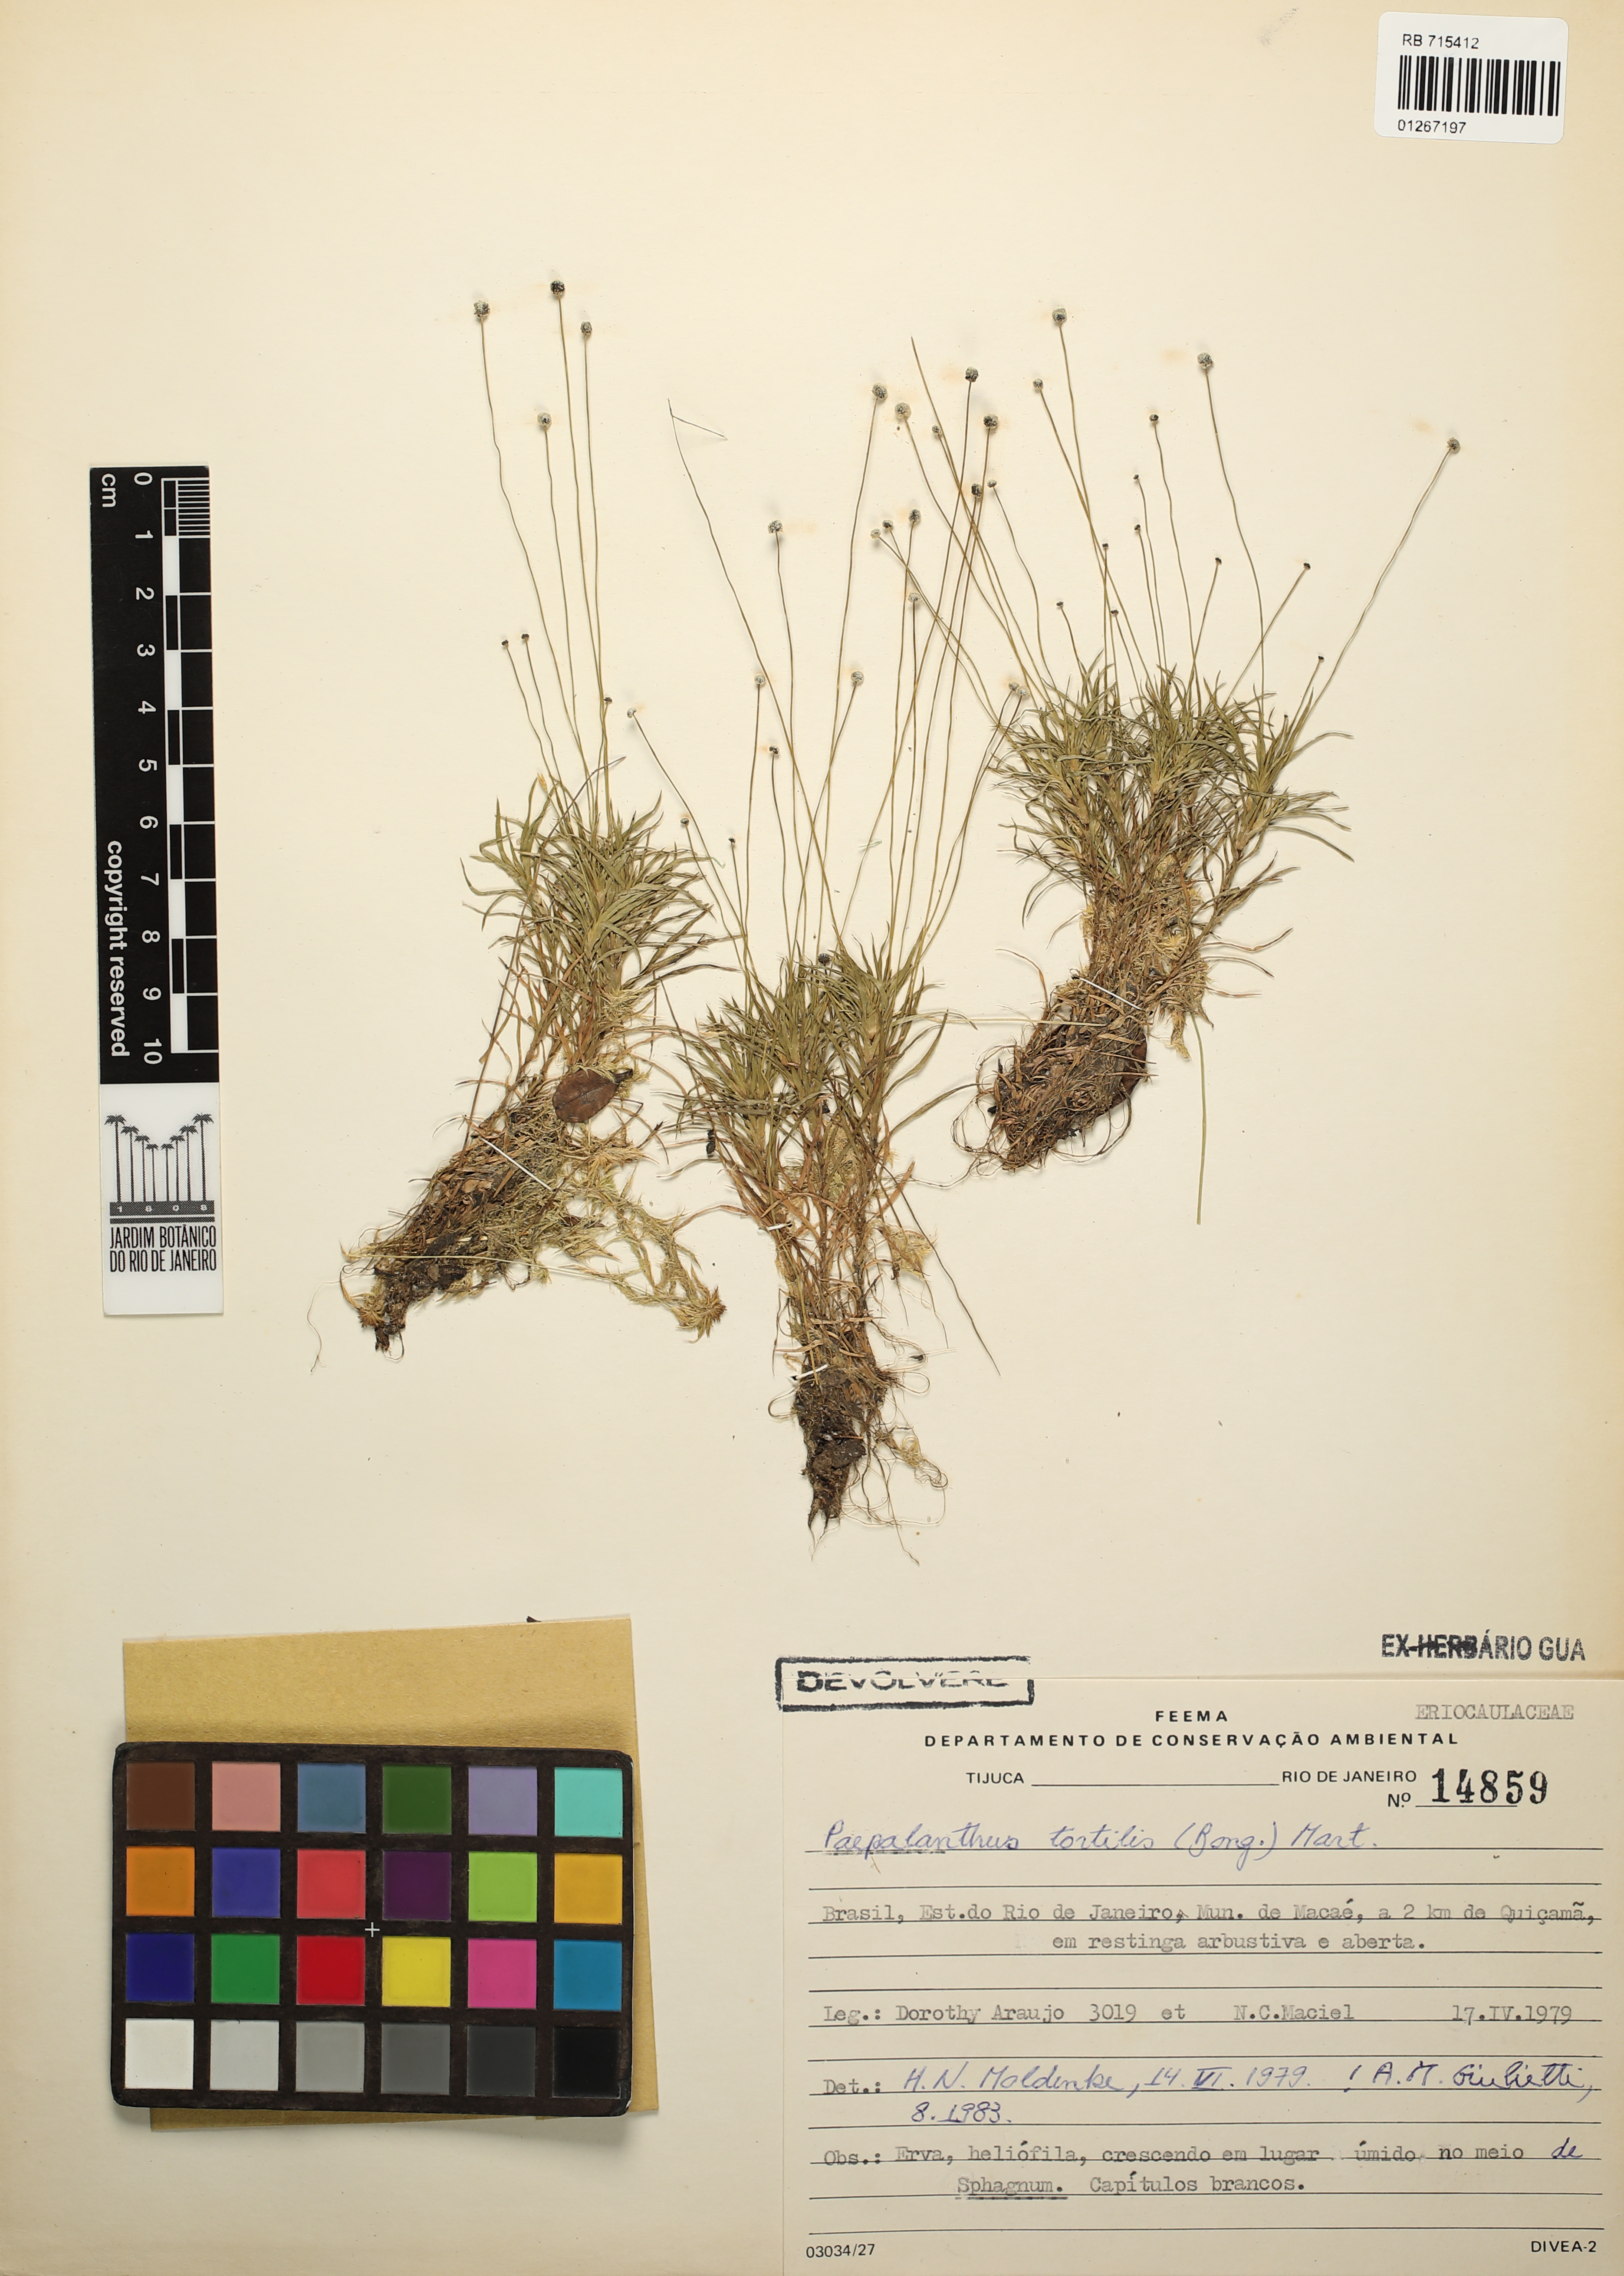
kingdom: Plantae
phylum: Tracheophyta
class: Liliopsida
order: Poales
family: Eriocaulaceae
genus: Paepalanthus
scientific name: Paepalanthus tortilis
